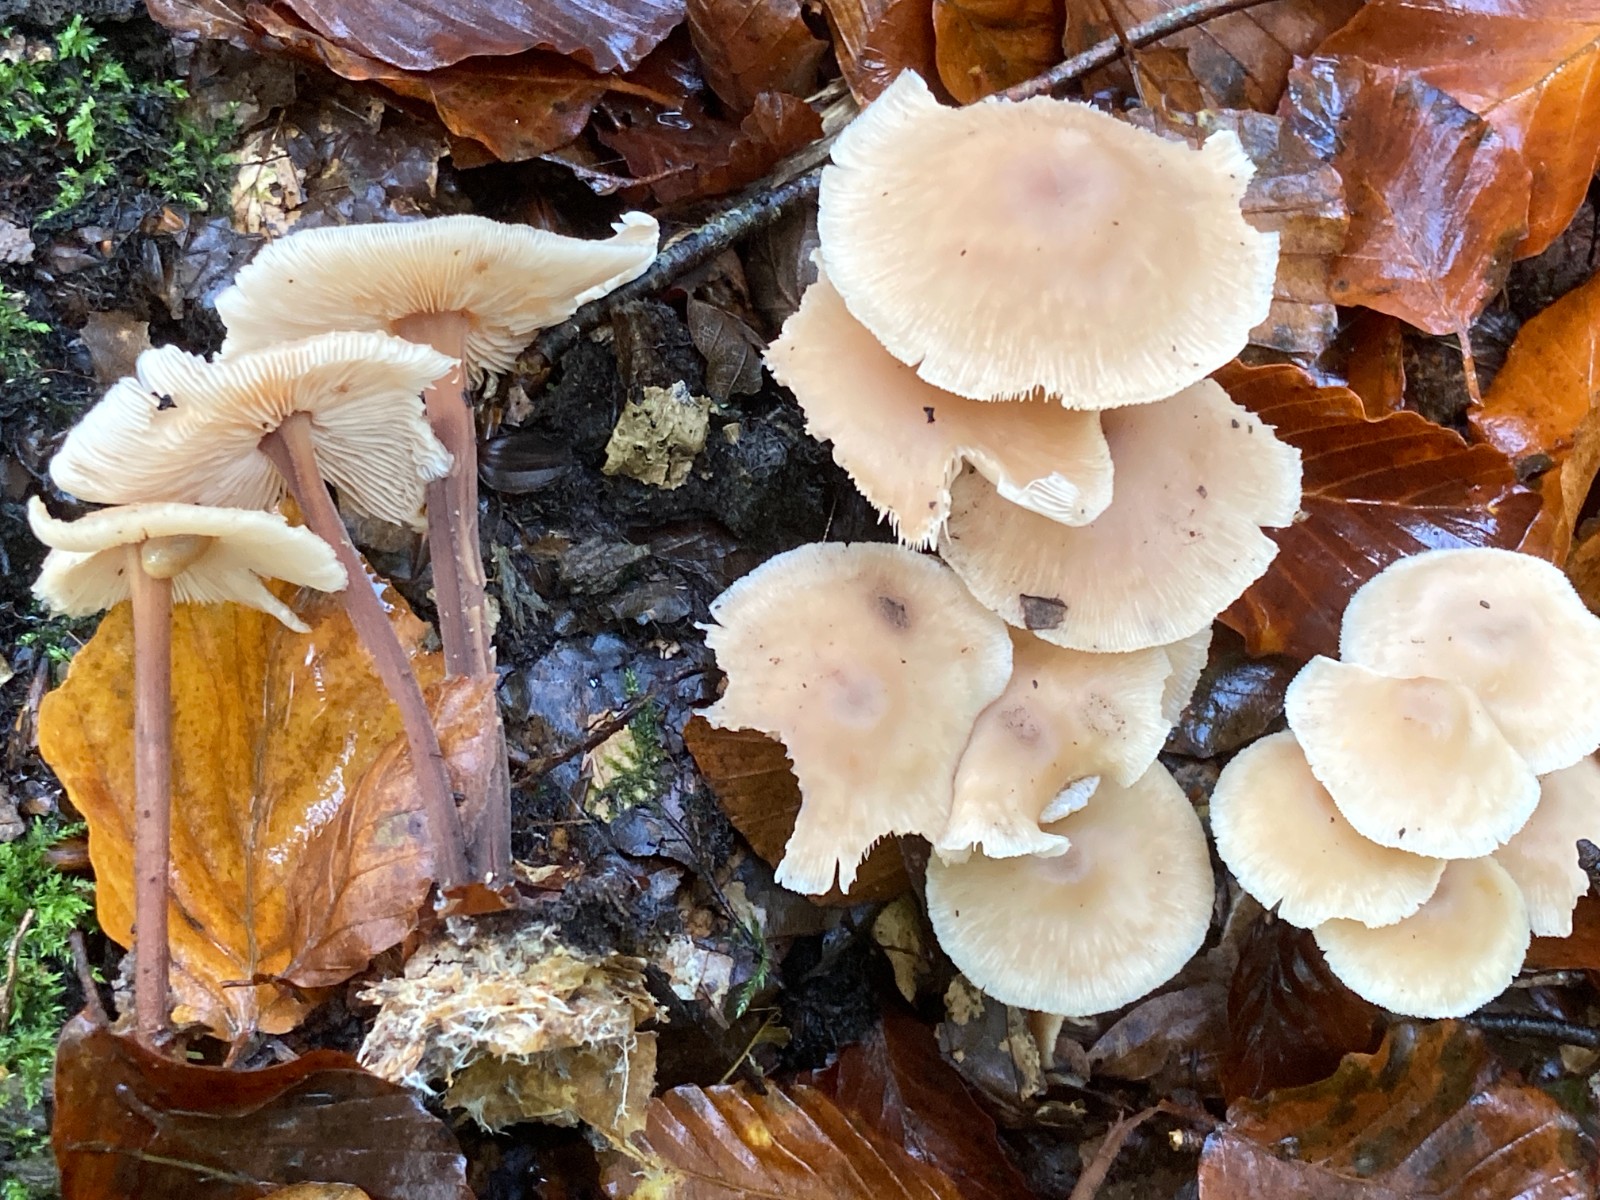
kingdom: Fungi
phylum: Basidiomycota
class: Agaricomycetes
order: Agaricales
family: Omphalotaceae
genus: Collybiopsis
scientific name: Collybiopsis confluens
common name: knippe-fladhat
